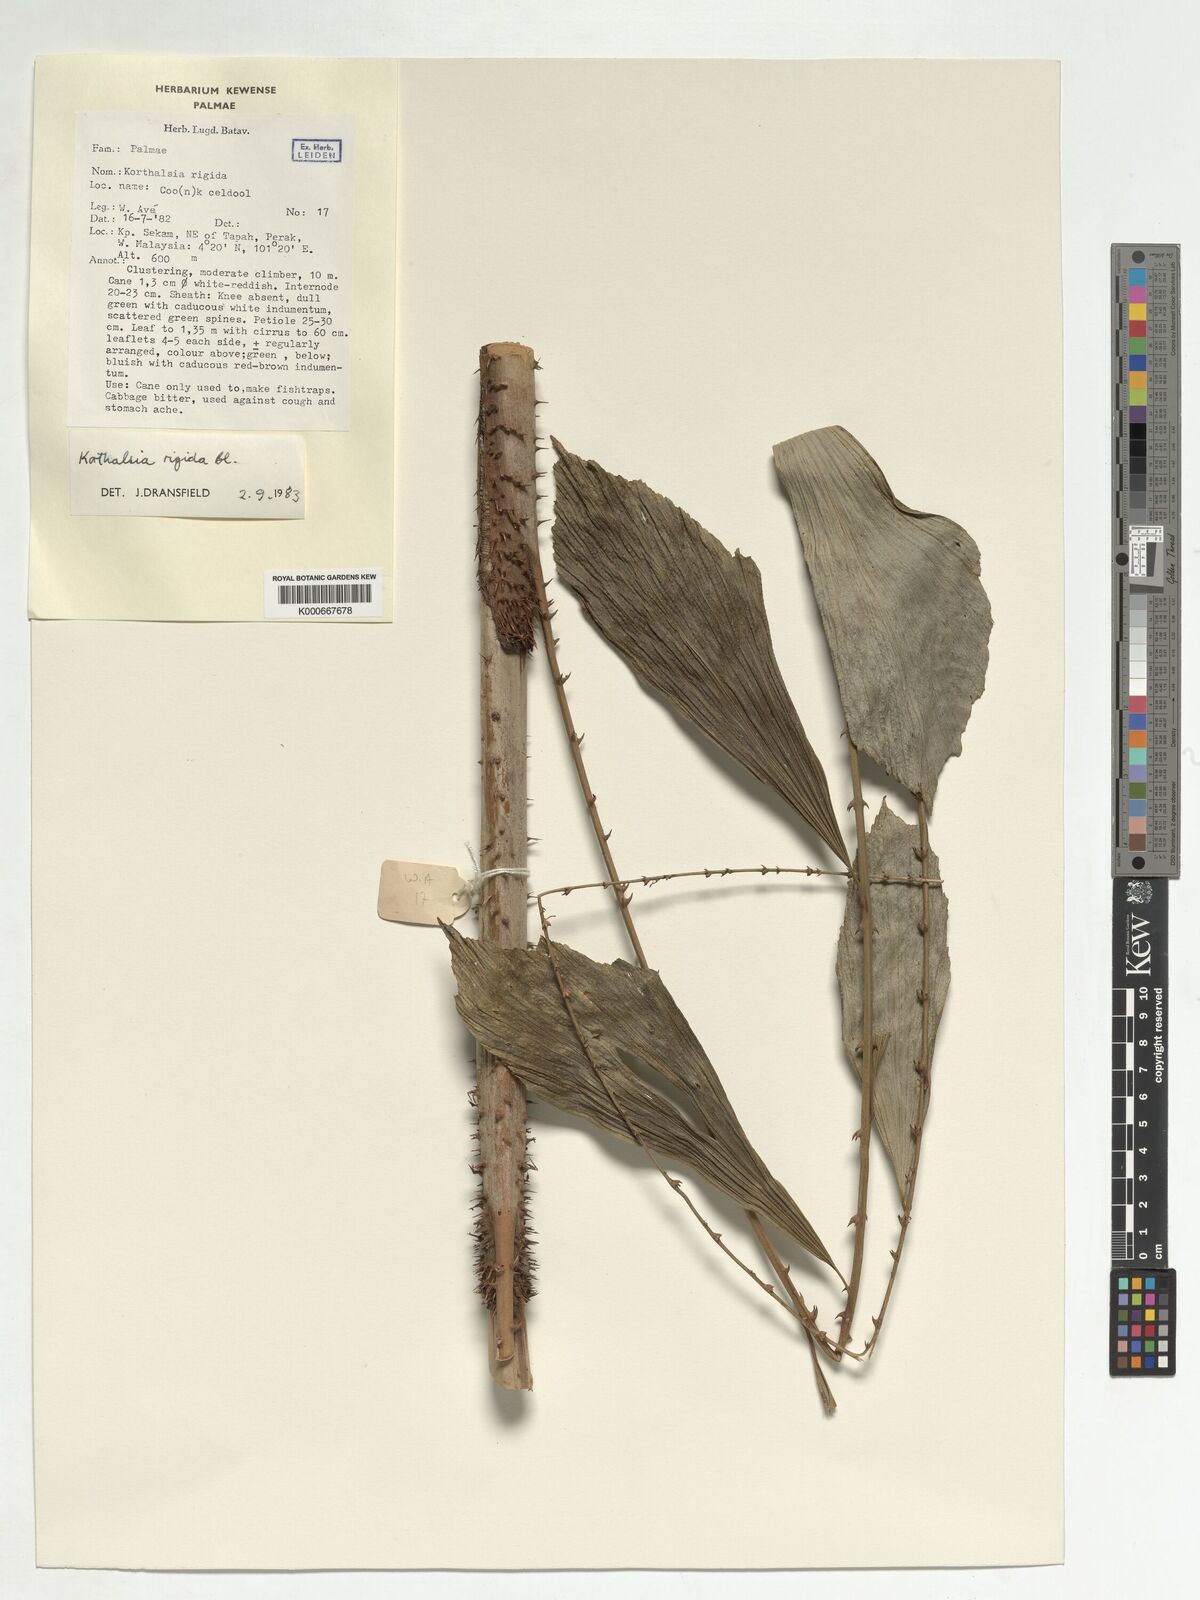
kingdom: Plantae
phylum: Tracheophyta
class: Liliopsida
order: Arecales
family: Arecaceae
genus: Korthalsia
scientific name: Korthalsia rigida
